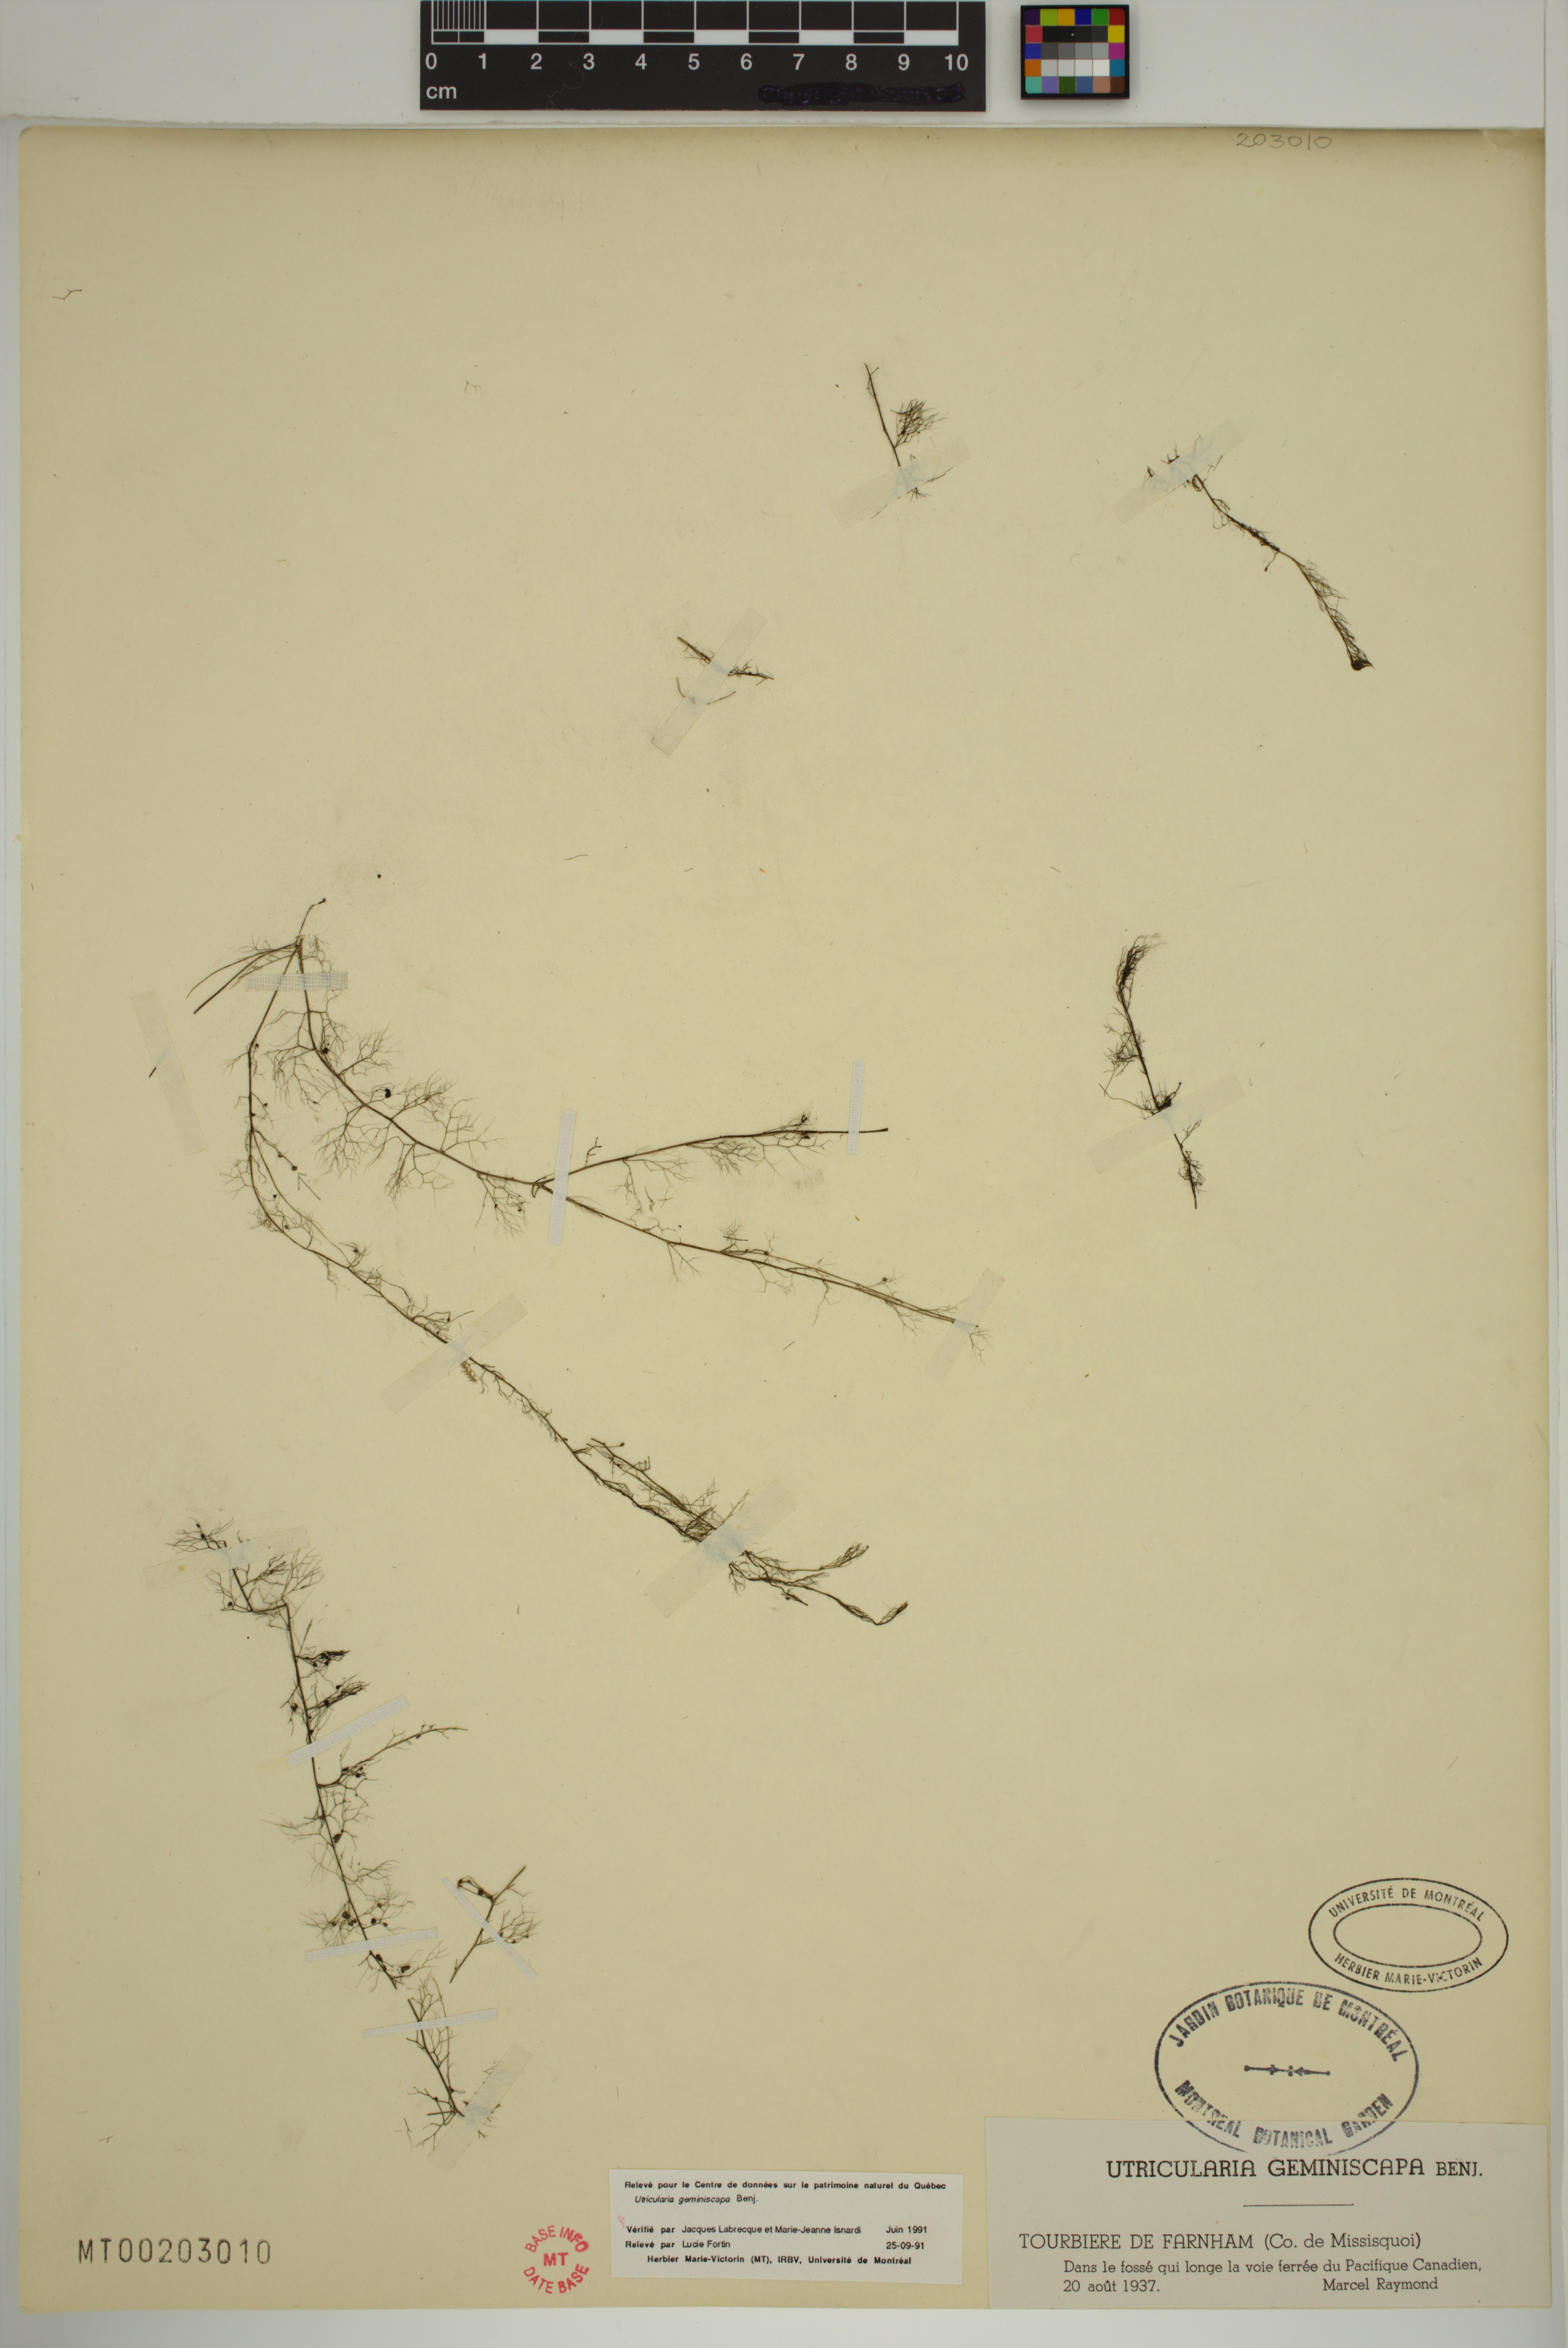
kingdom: Plantae
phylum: Tracheophyta
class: Magnoliopsida
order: Lamiales
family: Lentibulariaceae
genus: Utricularia
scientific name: Utricularia geminiscapa
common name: Hidden-fruit bladderwort
